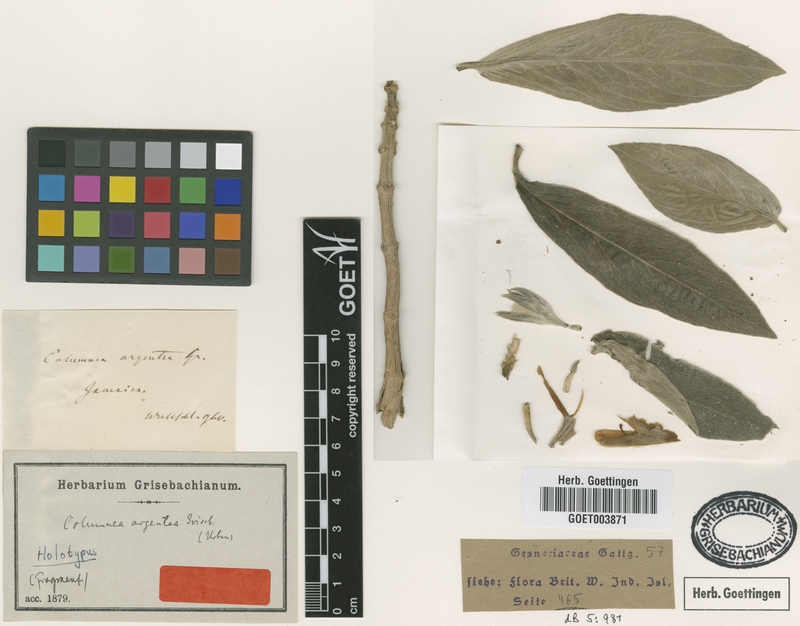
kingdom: Plantae
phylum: Tracheophyta
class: Magnoliopsida
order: Lamiales
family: Gesneriaceae
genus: Columnea
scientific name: Columnea argentea
